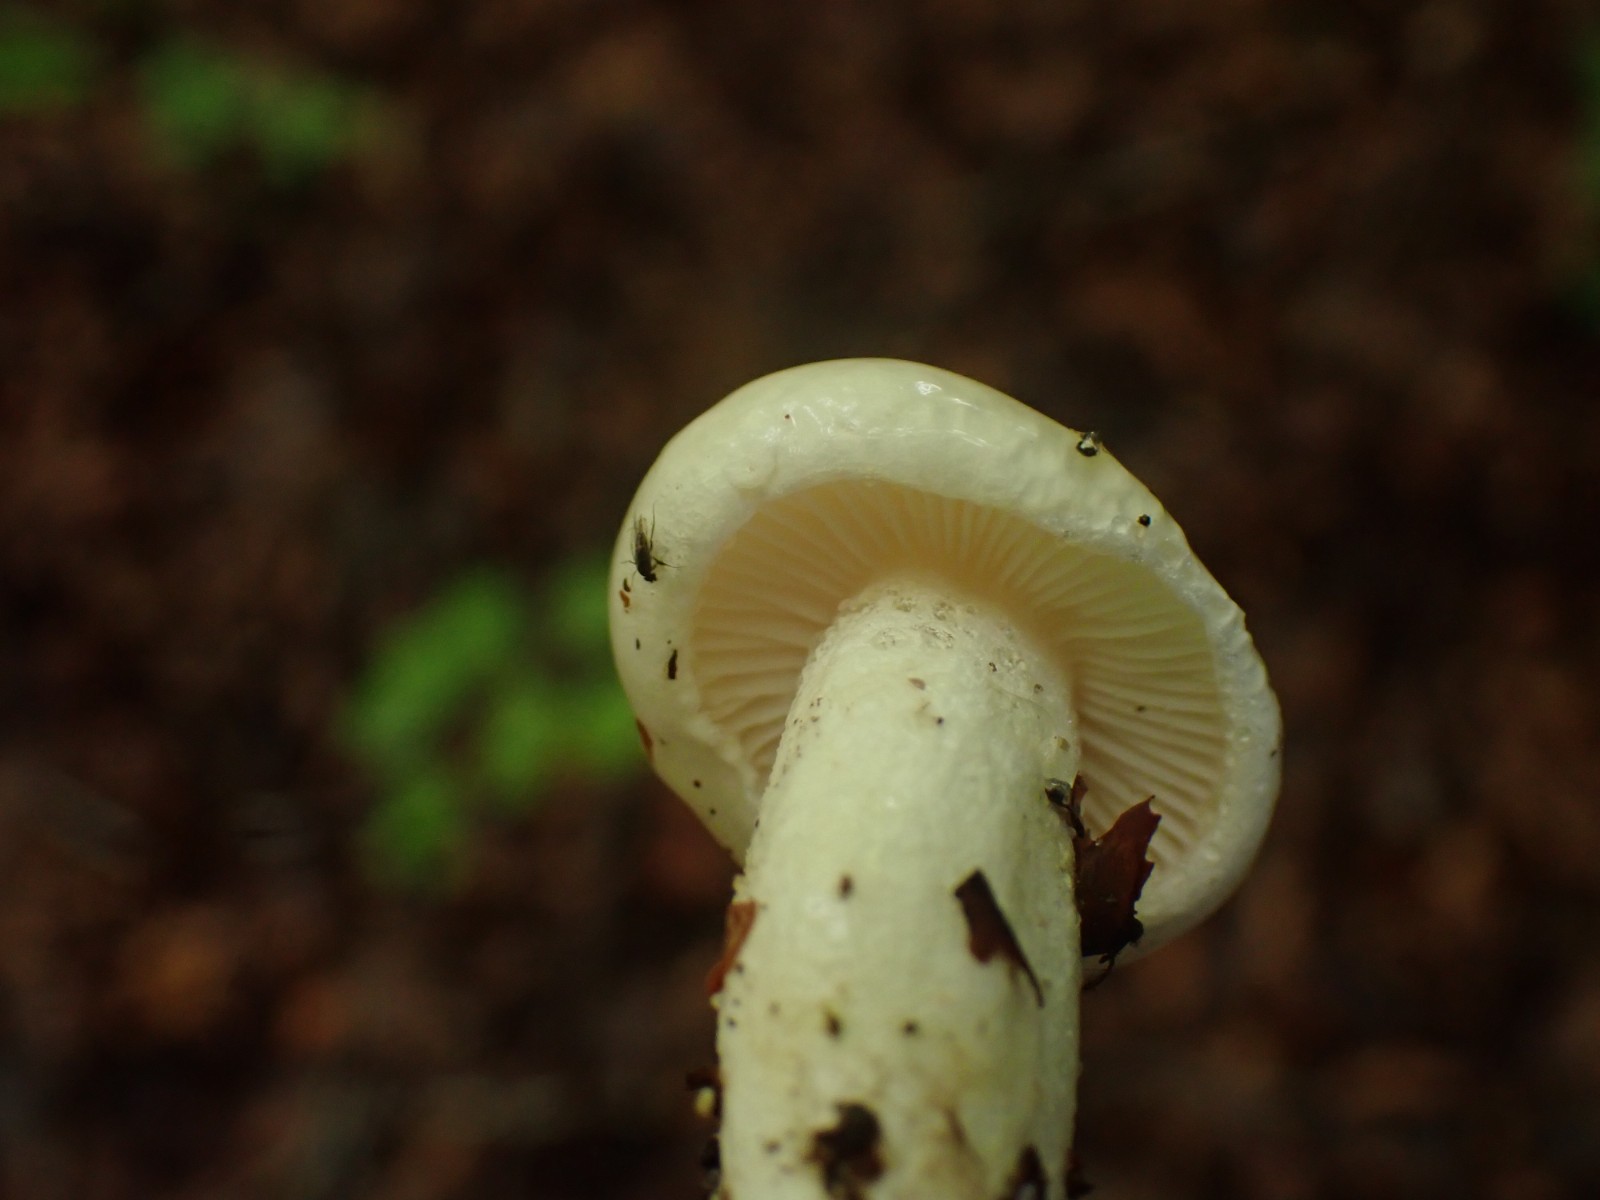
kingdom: Fungi
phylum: Basidiomycota
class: Agaricomycetes
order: Agaricales
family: Hygrophoraceae
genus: Hygrophorus
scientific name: Hygrophorus
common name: sneglehat
